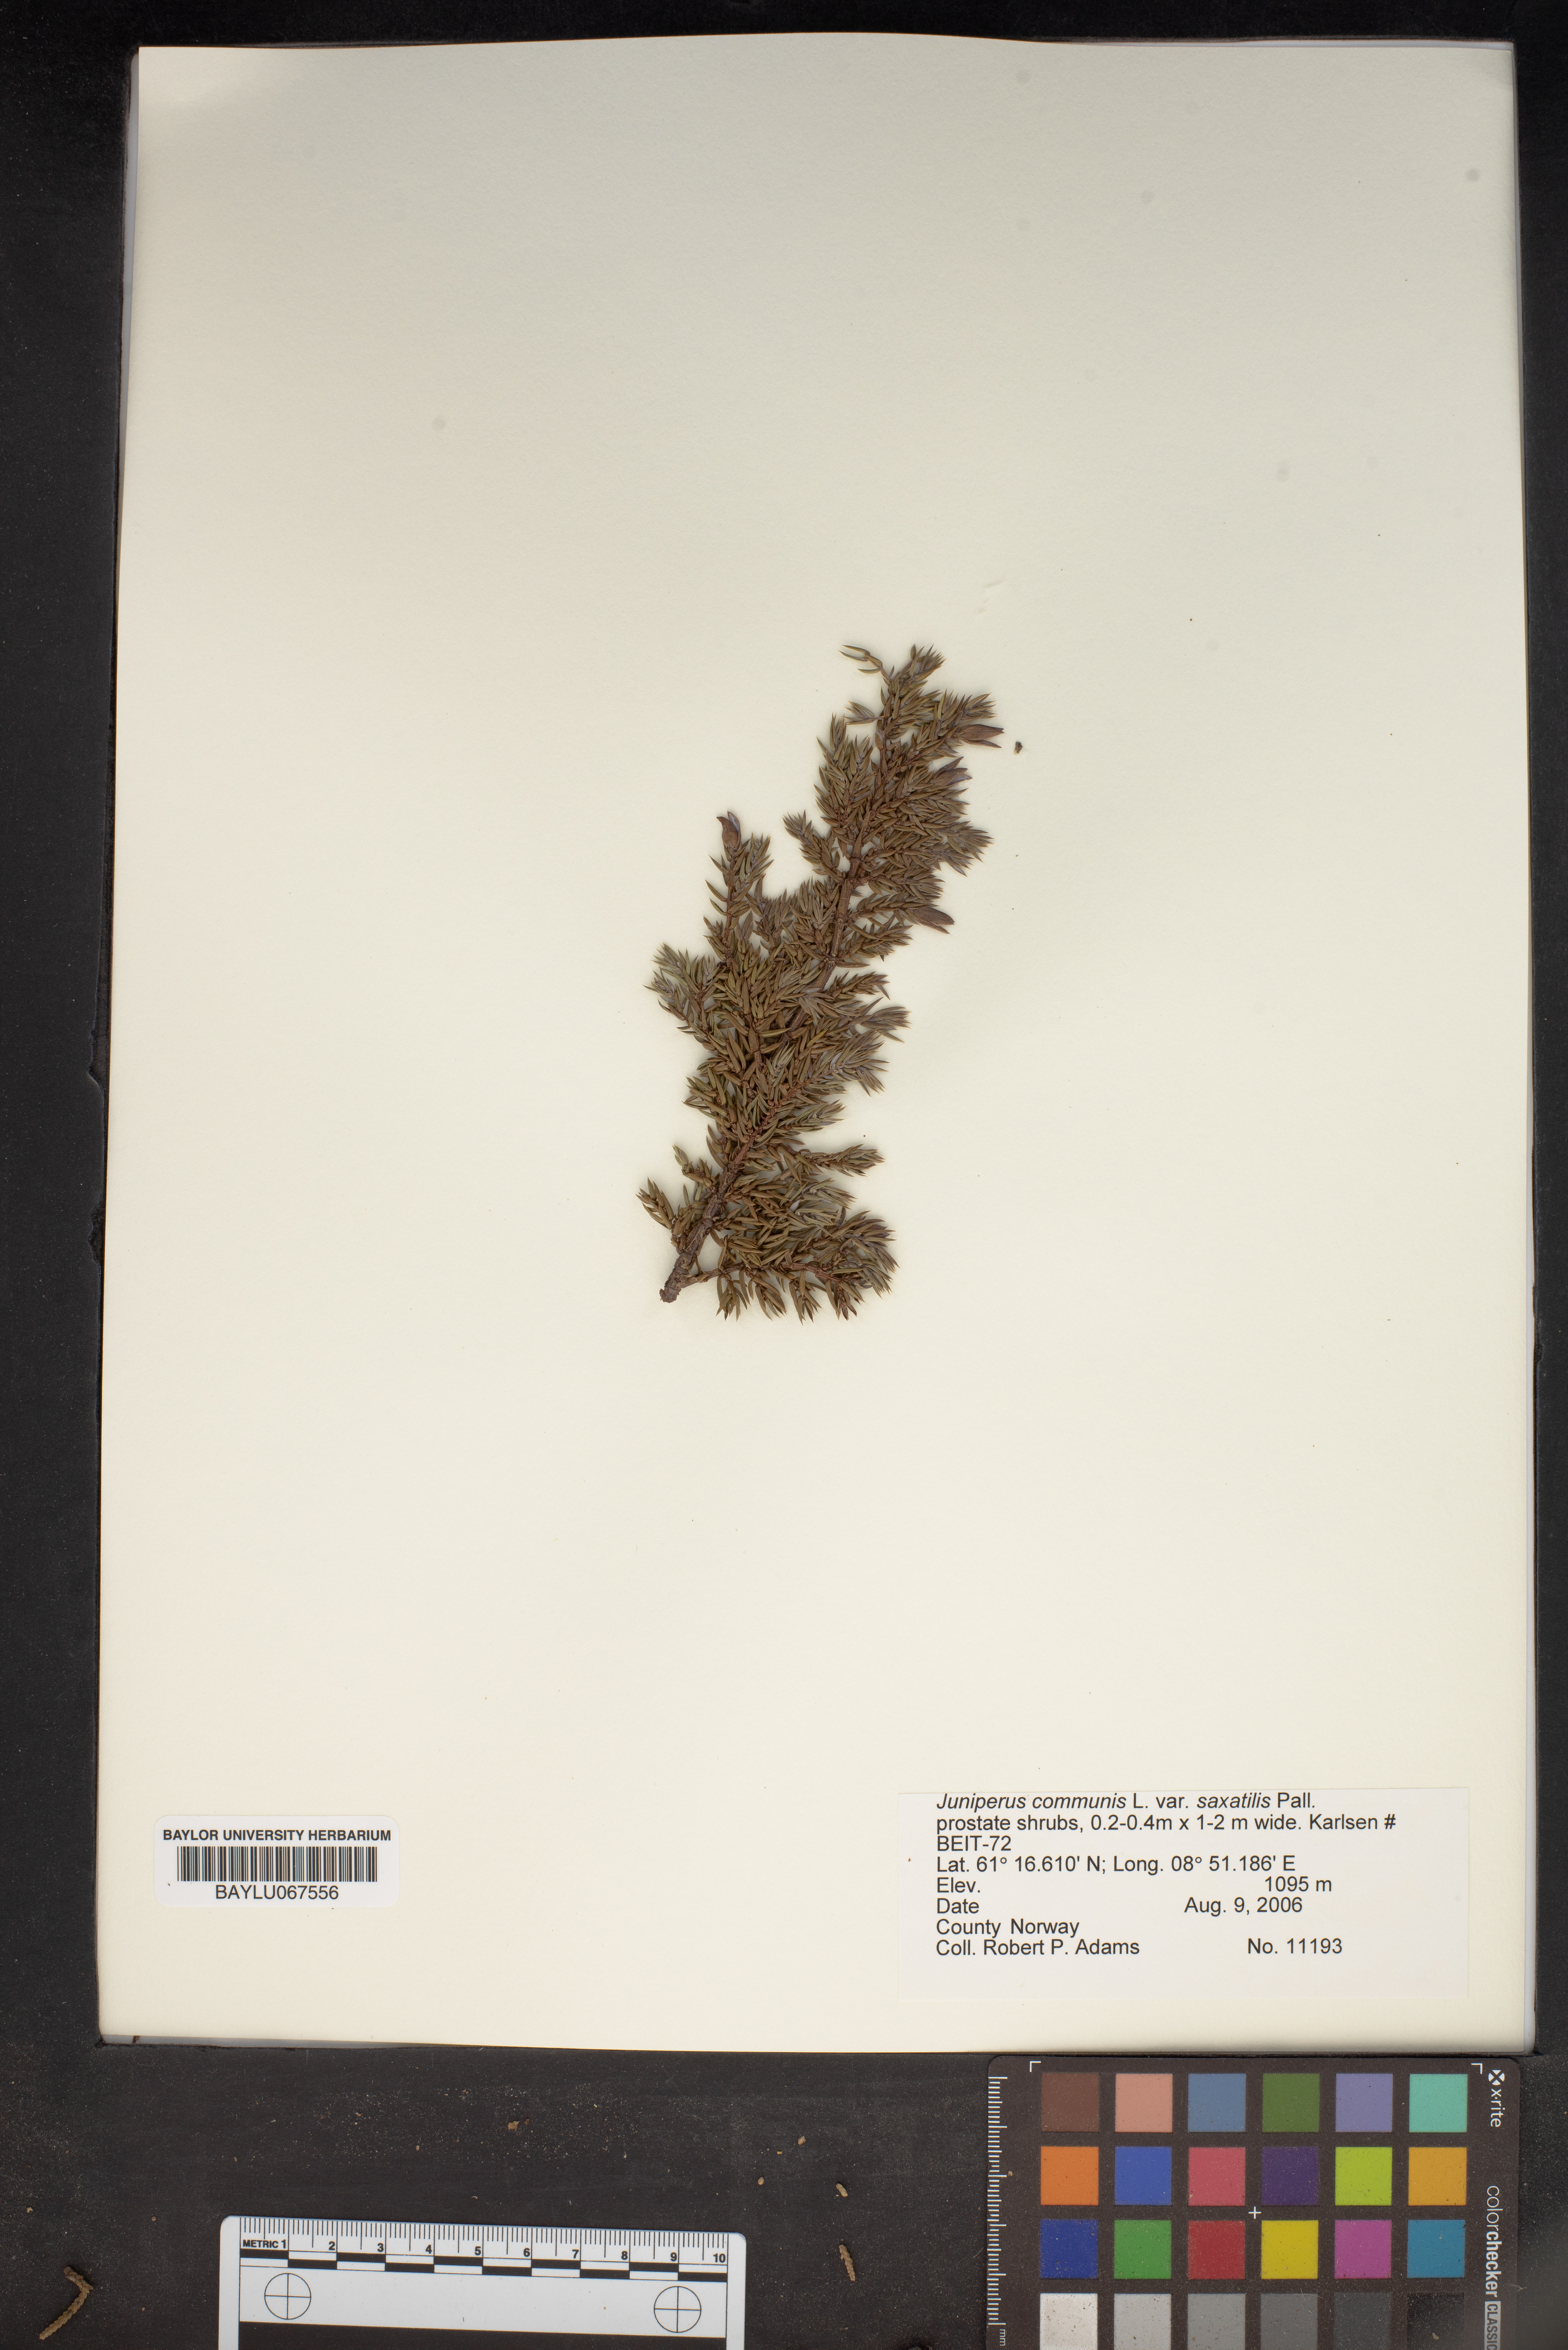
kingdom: Plantae
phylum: Tracheophyta
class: Pinopsida
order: Pinales
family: Cupressaceae
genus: Juniperus
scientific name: Juniperus communis
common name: Common juniper
